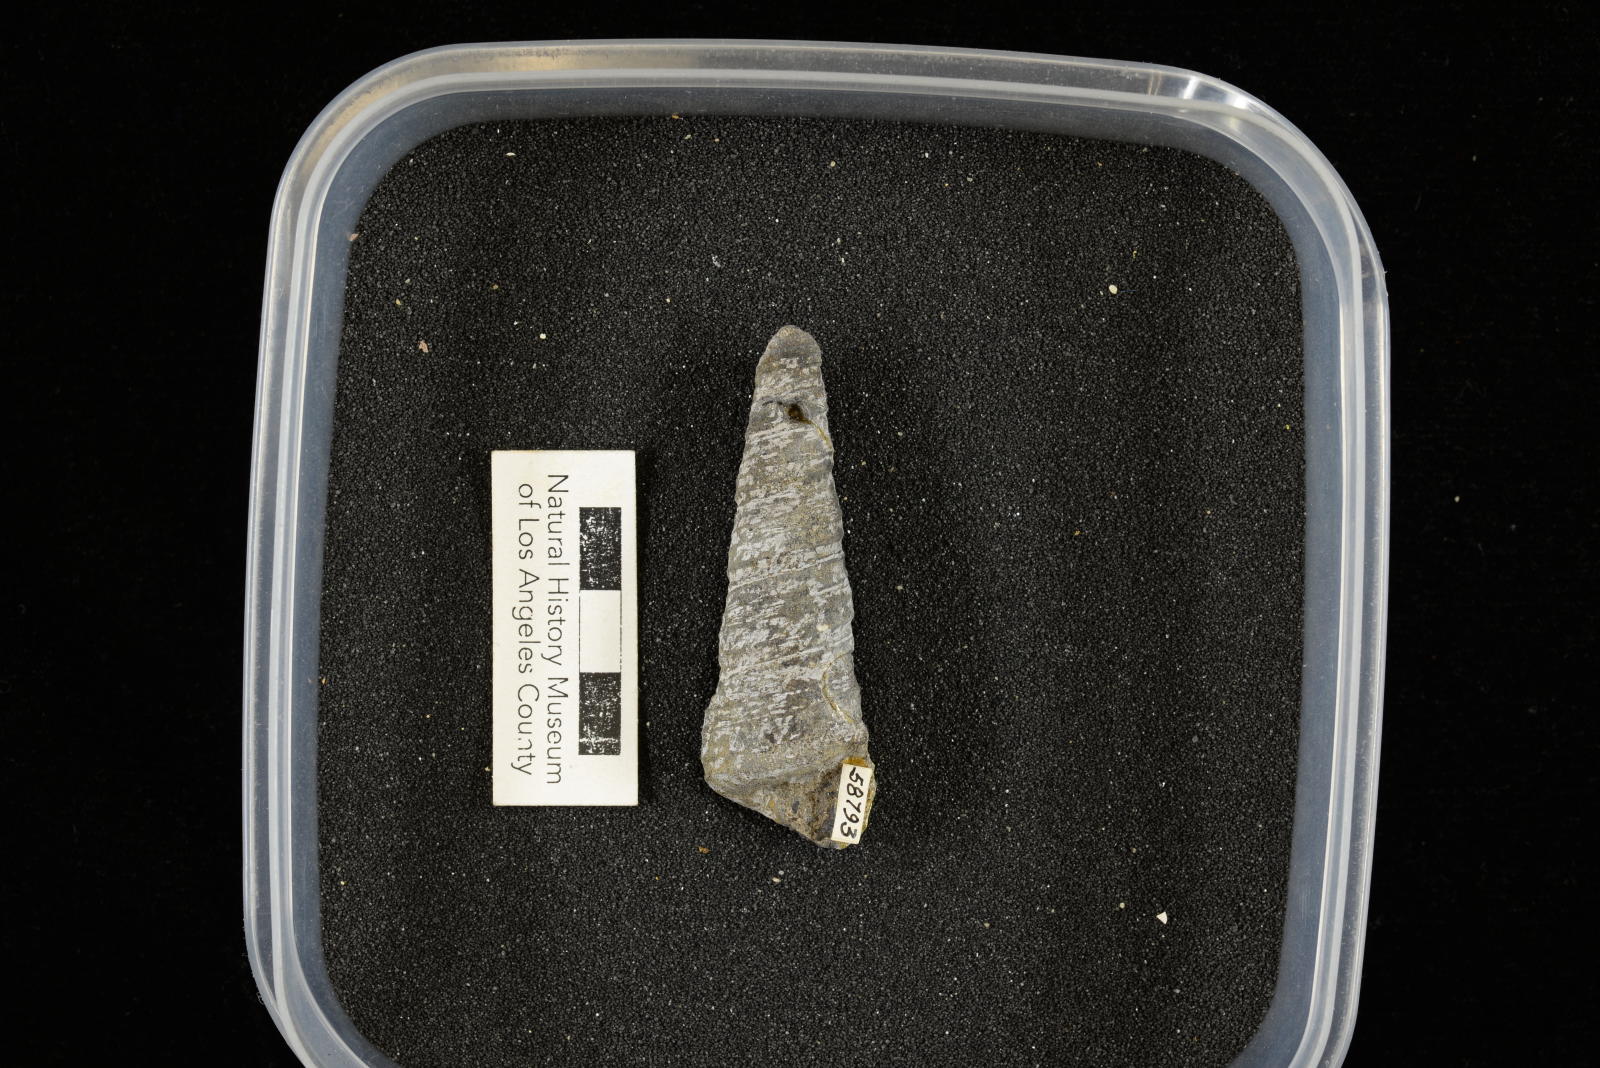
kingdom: Animalia
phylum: Mollusca
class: Gastropoda
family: Turritellidae
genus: Turritella
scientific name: Turritella
